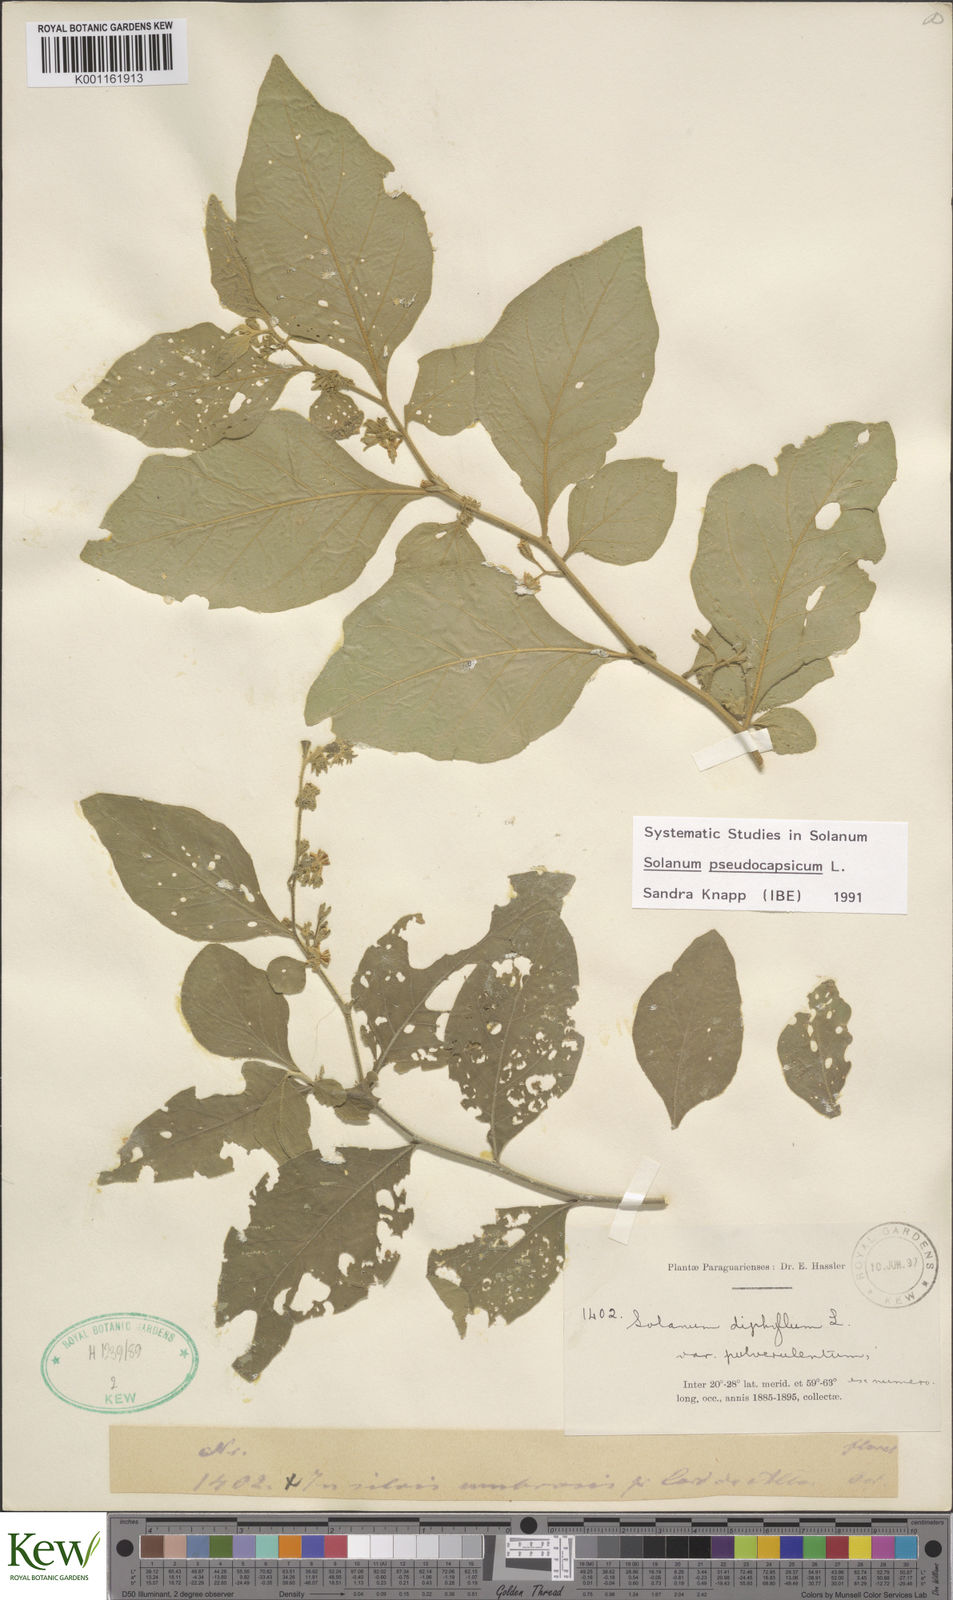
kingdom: Plantae
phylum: Tracheophyta
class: Magnoliopsida
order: Solanales
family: Solanaceae
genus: Solanum
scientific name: Solanum pseudocapsicum
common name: Jerusalem cherry
